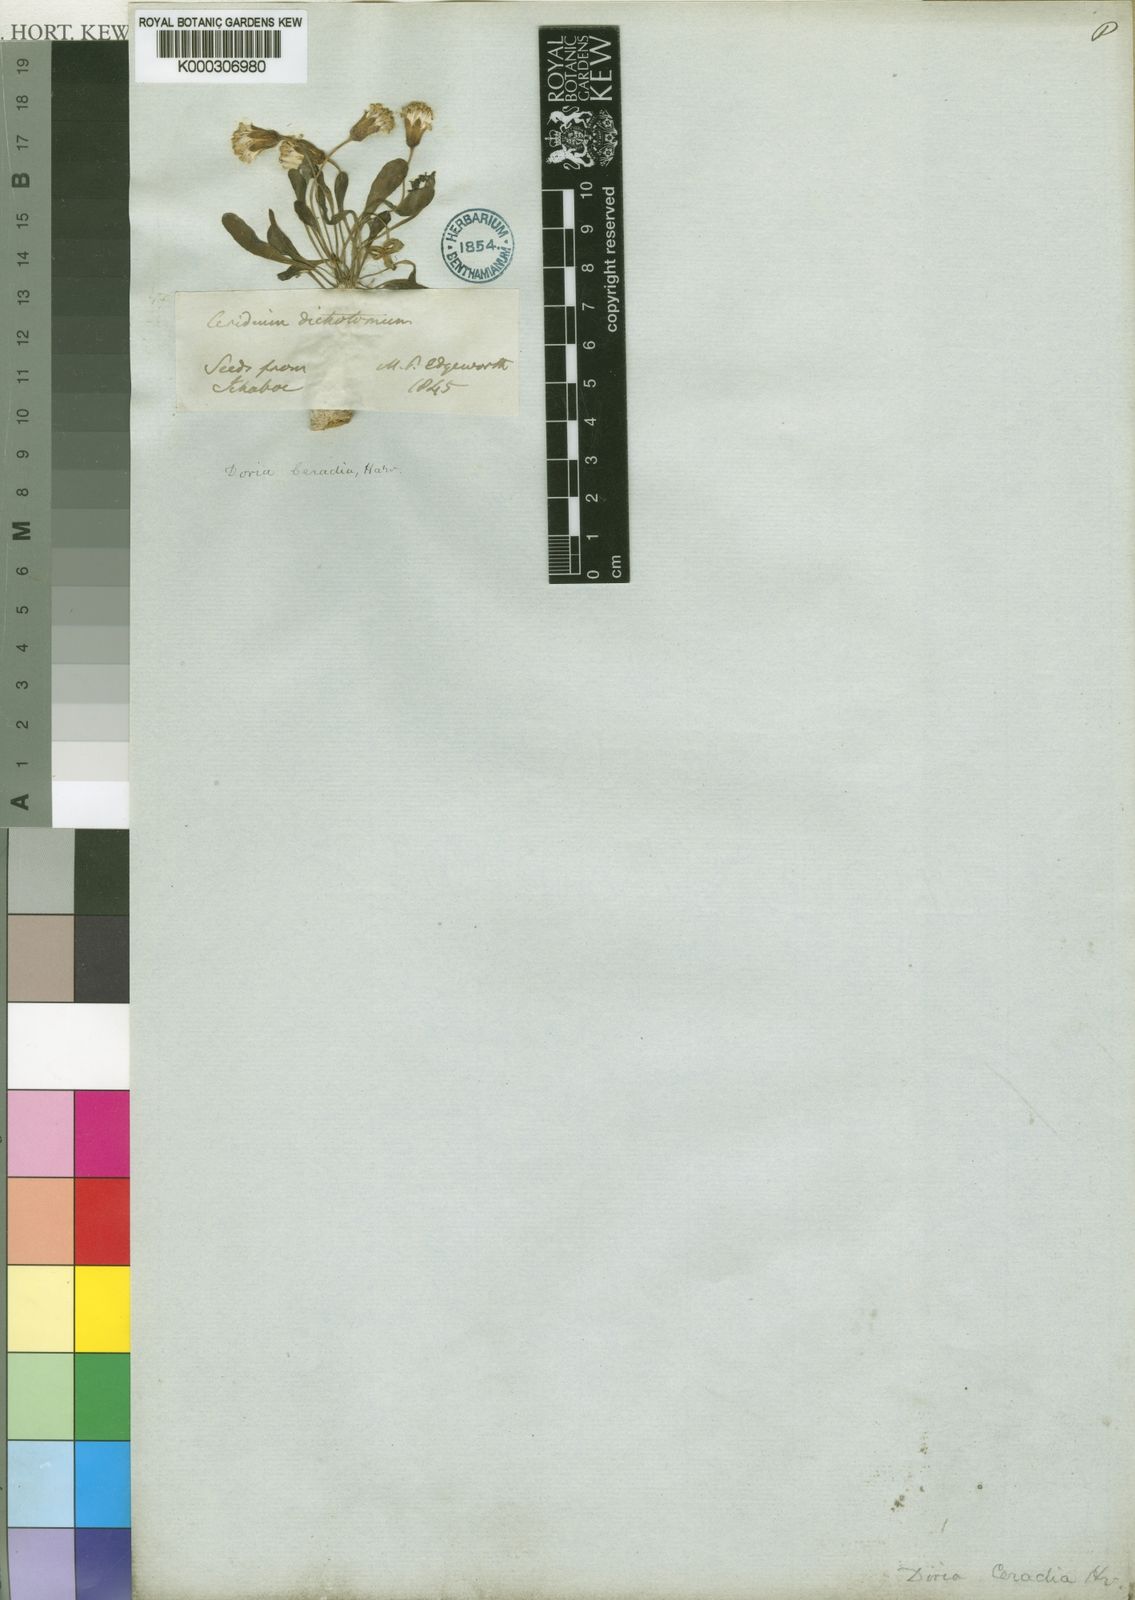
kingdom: Plantae
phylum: Tracheophyta
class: Magnoliopsida
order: Asterales
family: Asteraceae
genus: Othonna
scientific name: Othonna
